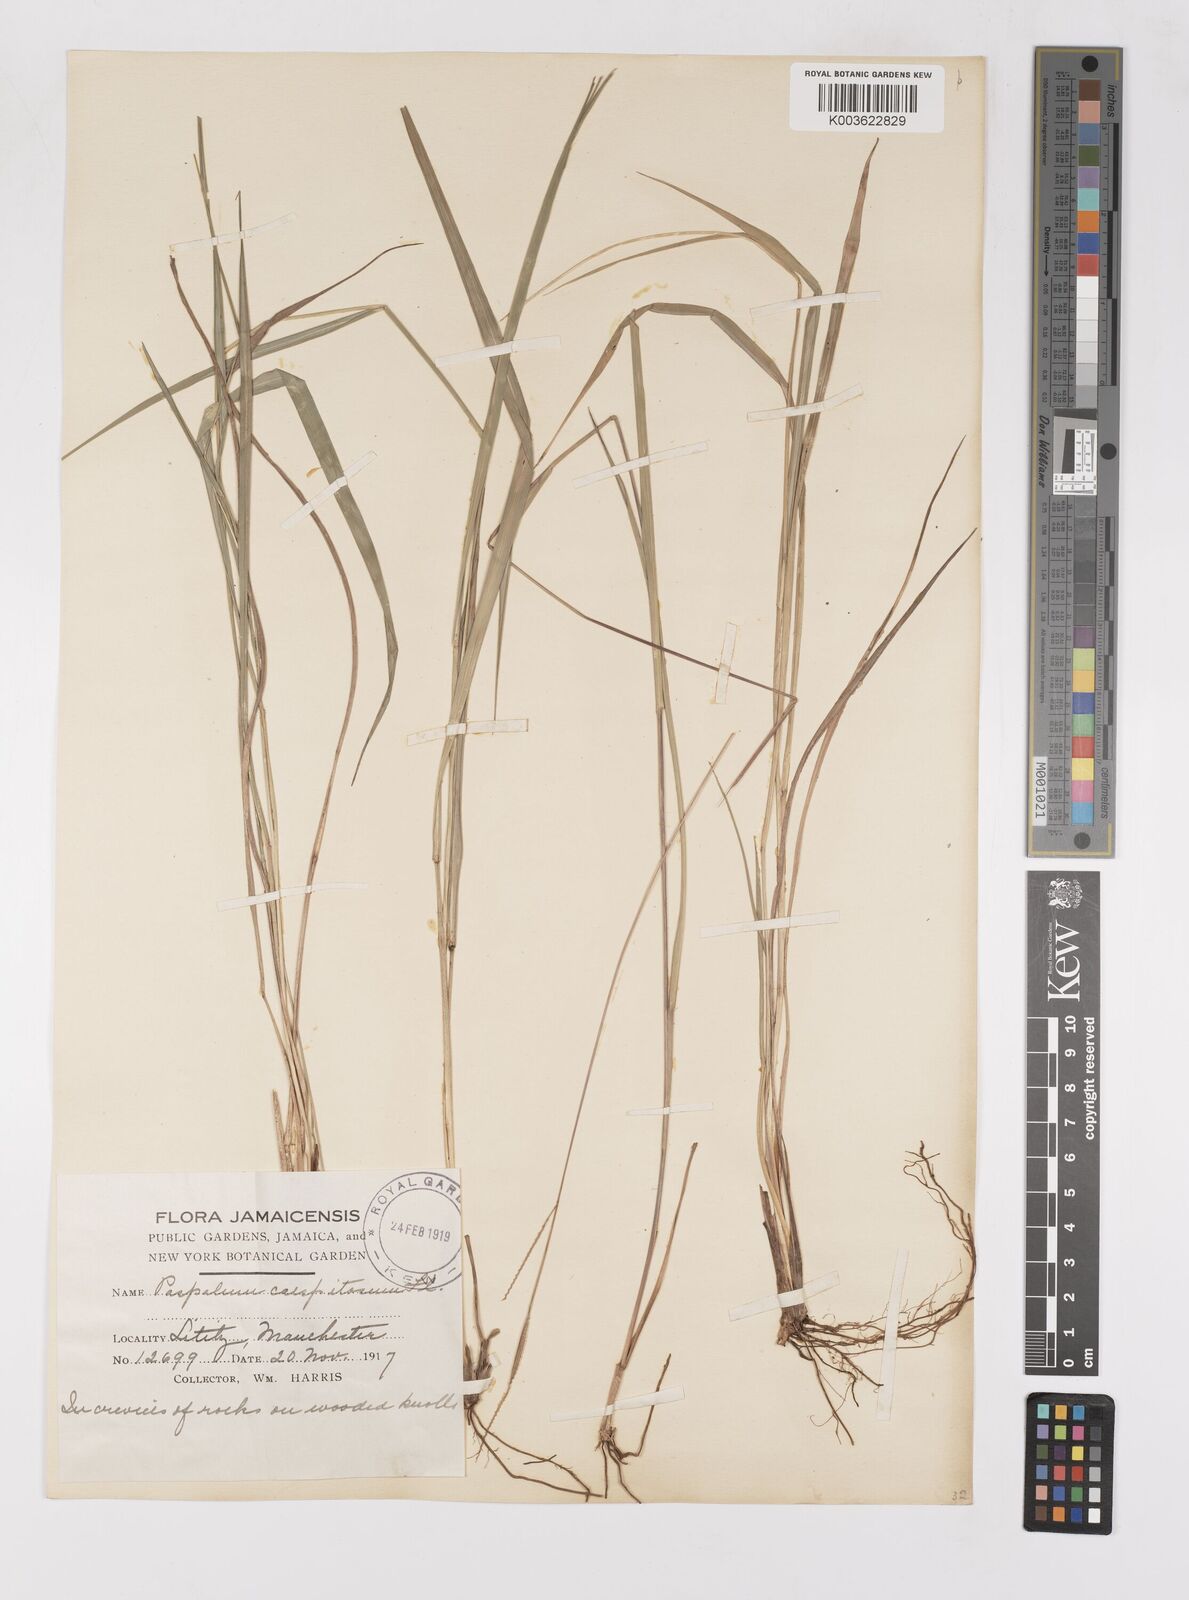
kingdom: Plantae
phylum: Tracheophyta
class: Liliopsida
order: Poales
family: Poaceae
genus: Paspalum
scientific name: Paspalum caespitosum
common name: Blue crowngrass
